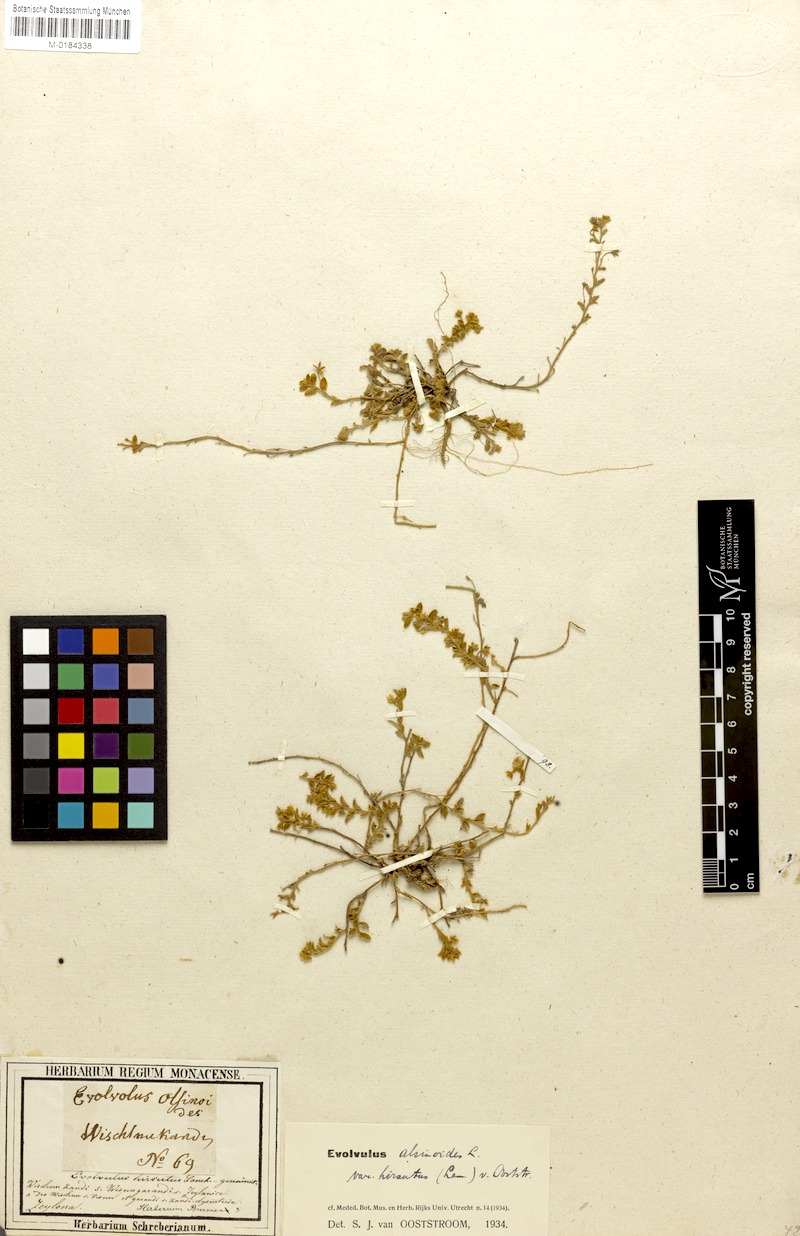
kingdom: Plantae
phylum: Tracheophyta
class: Magnoliopsida
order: Solanales
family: Convolvulaceae
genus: Evolvulus
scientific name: Evolvulus alsinoides
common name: Slender dwarf morning-glory
